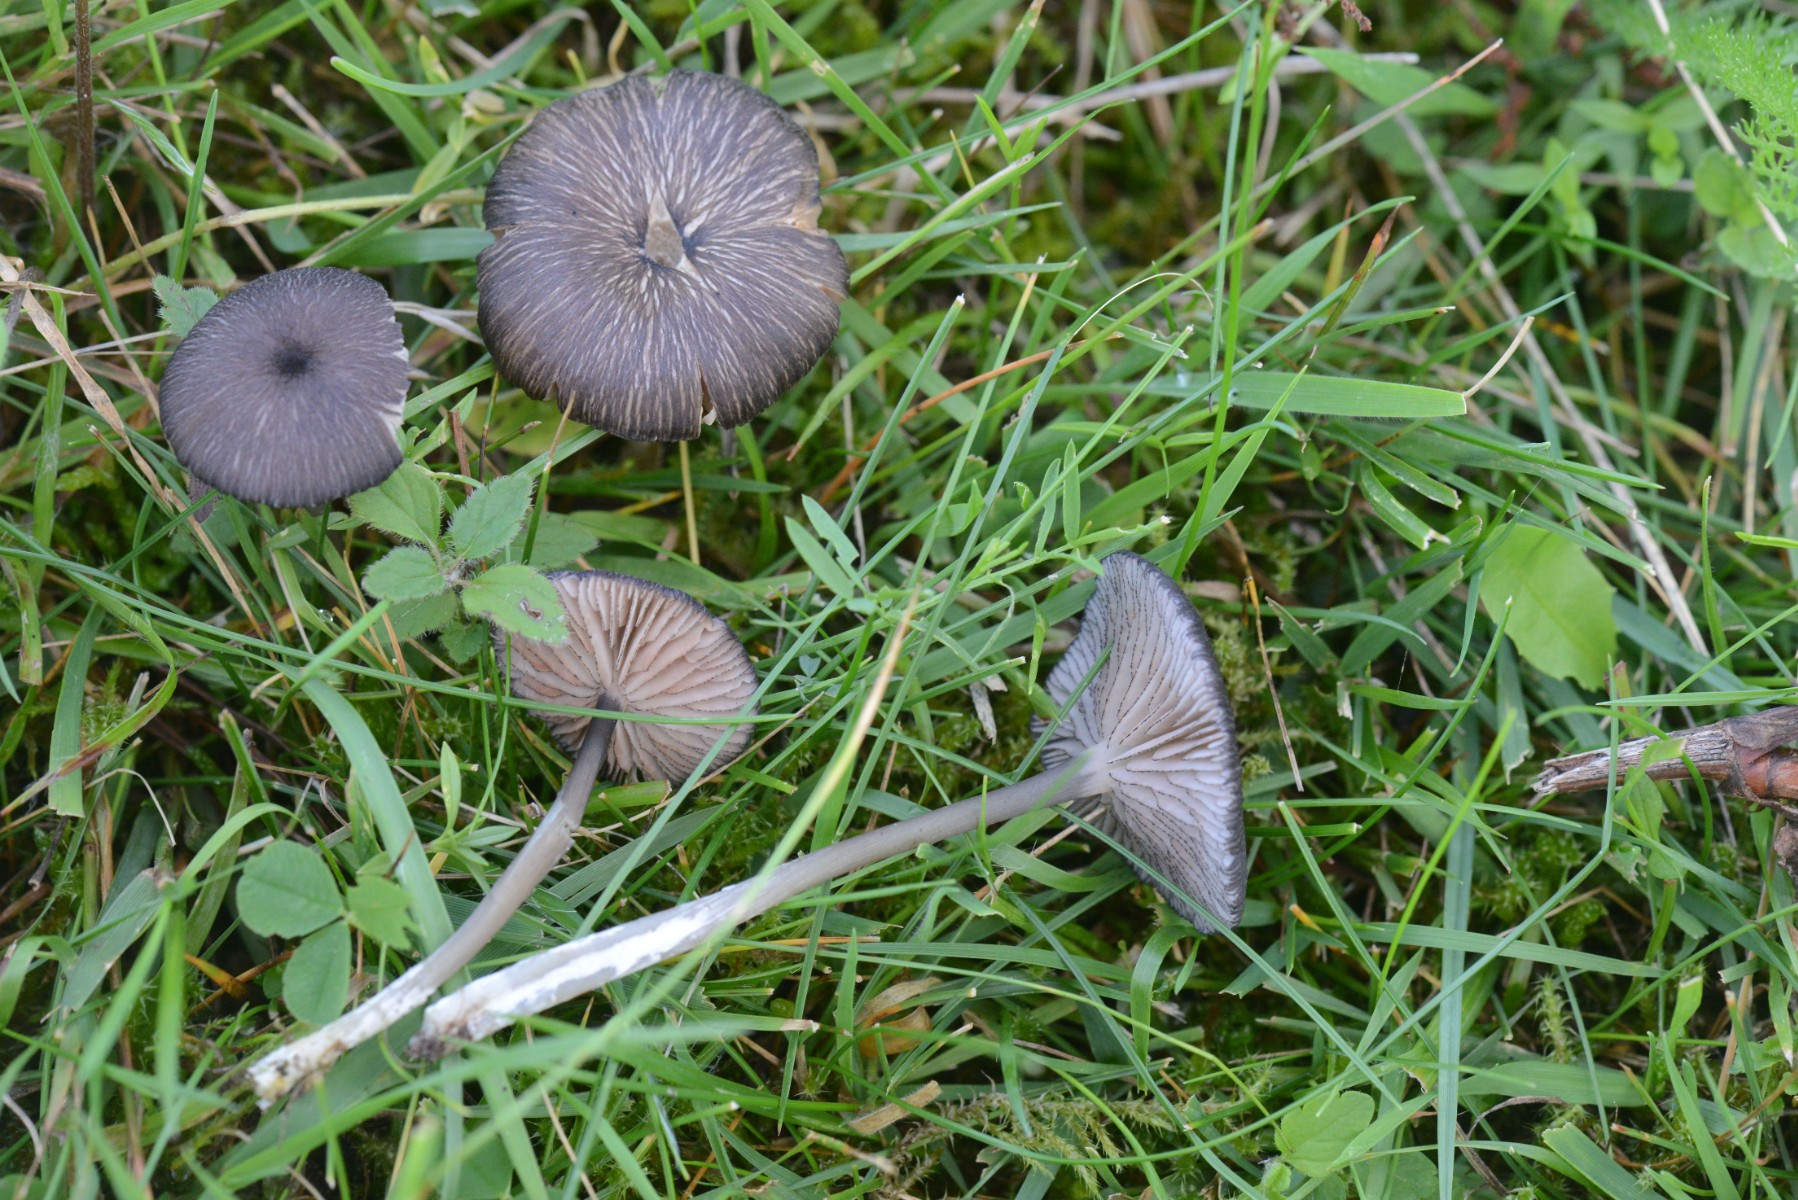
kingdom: Fungi
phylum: Basidiomycota
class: Agaricomycetes
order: Agaricales
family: Entolomataceae
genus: Entoloma
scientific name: Entoloma
